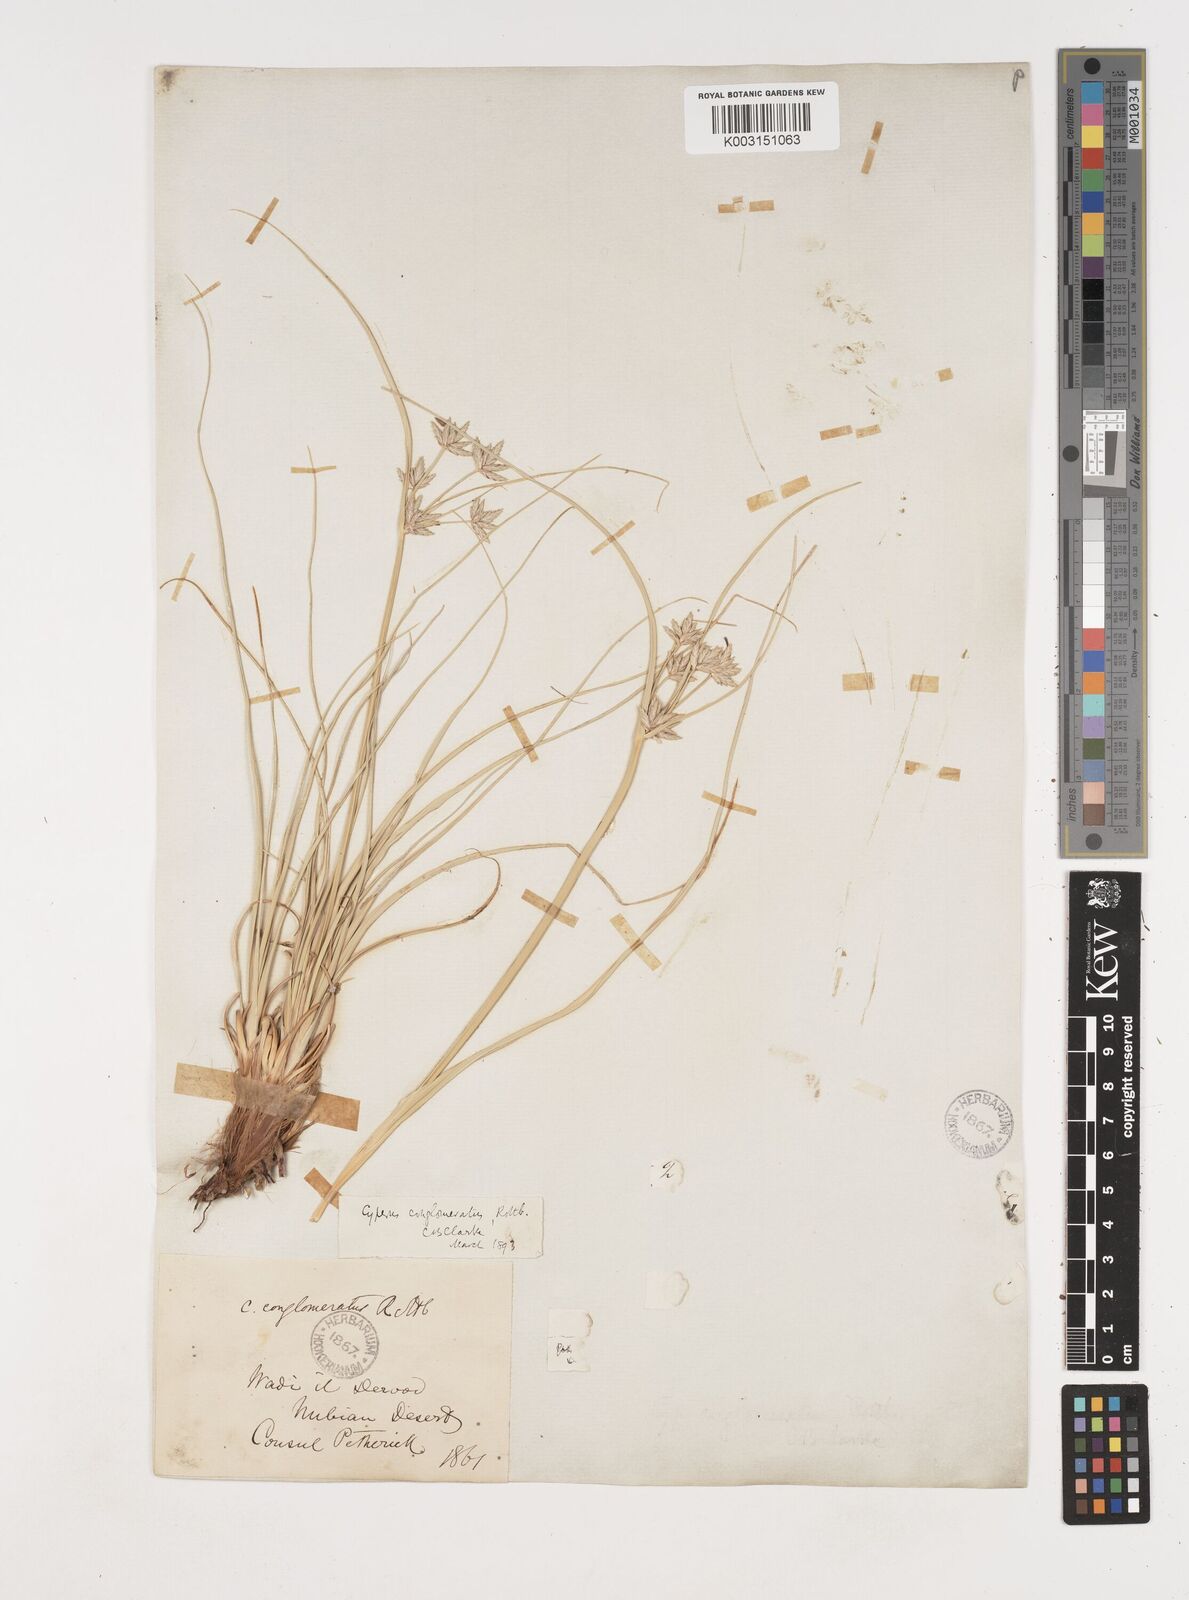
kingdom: Plantae
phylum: Tracheophyta
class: Liliopsida
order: Poales
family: Cyperaceae
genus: Cyperus
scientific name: Cyperus jeminicus
